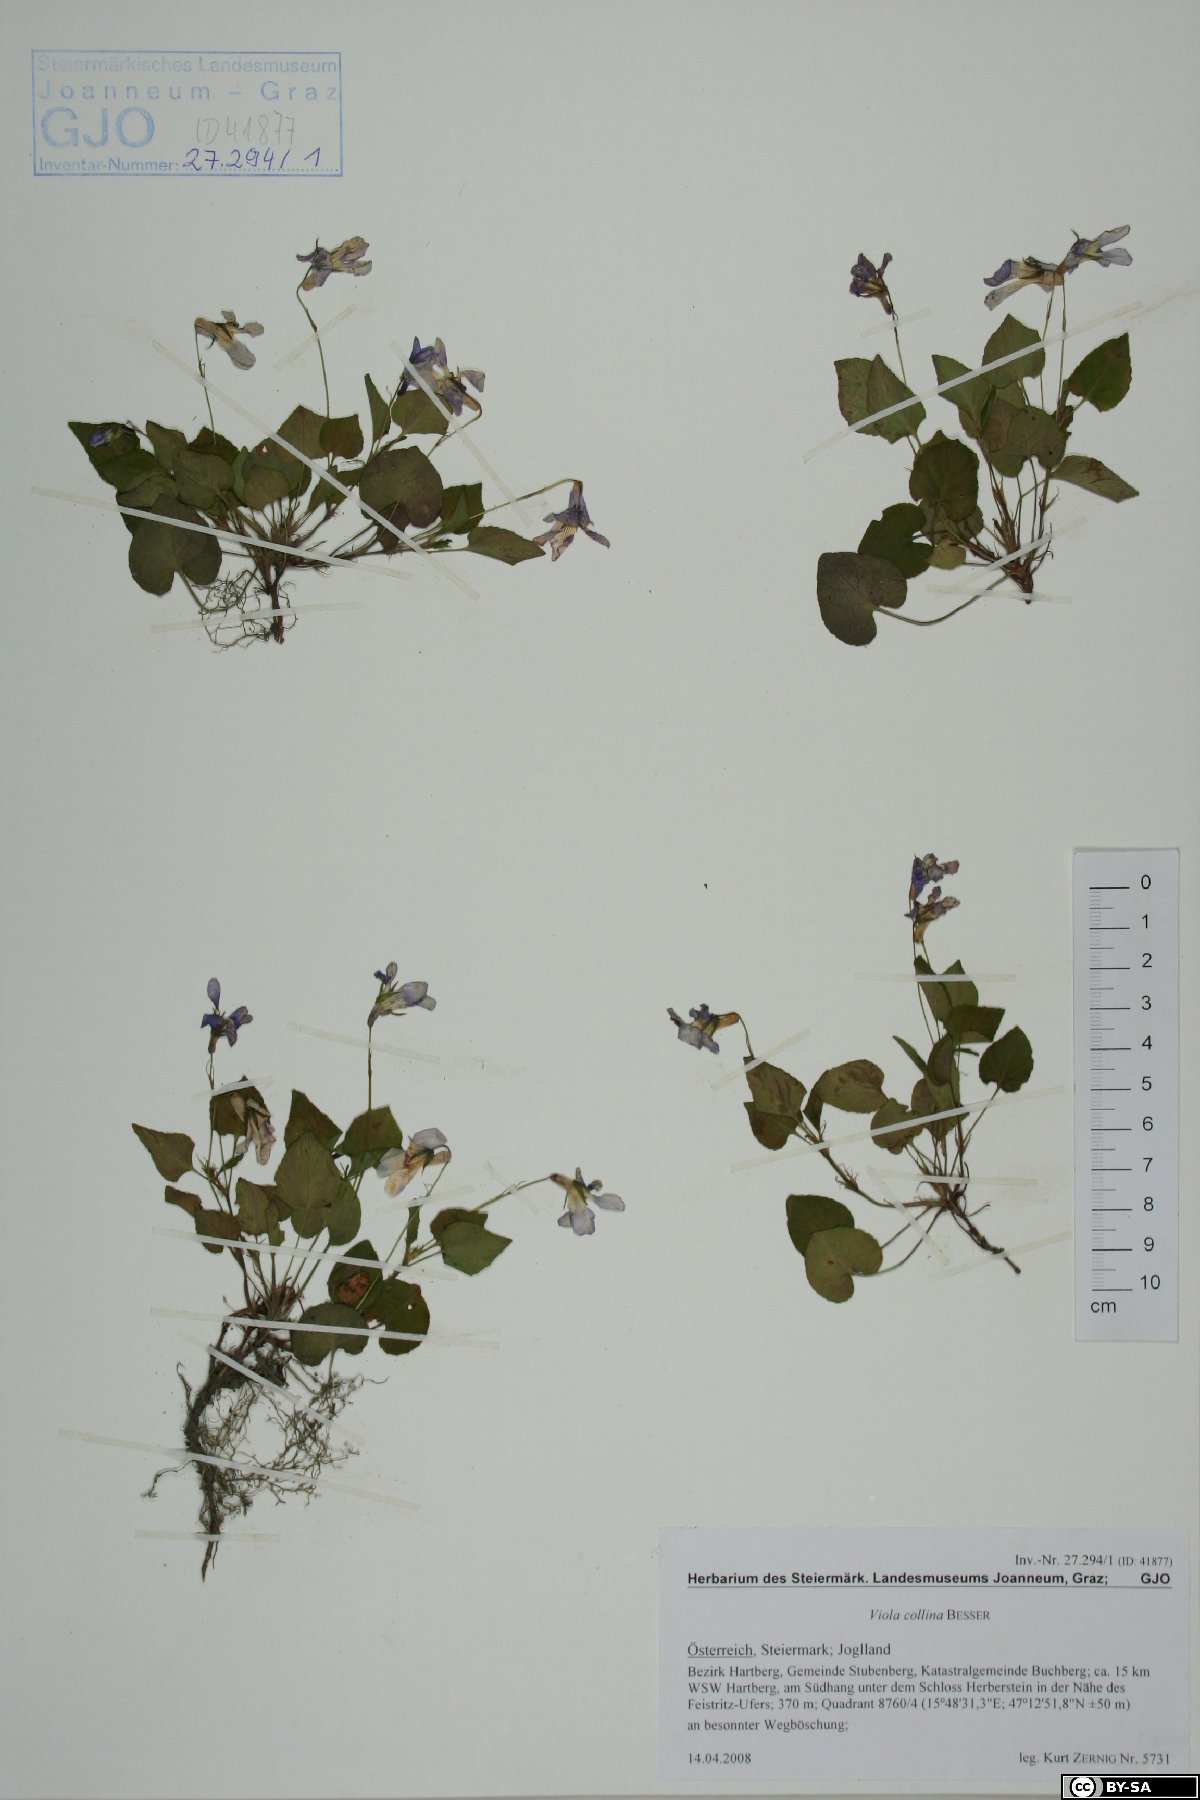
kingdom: Plantae
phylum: Tracheophyta
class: Magnoliopsida
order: Malpighiales
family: Violaceae
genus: Viola
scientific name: Viola riviniana
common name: Common dog-violet
